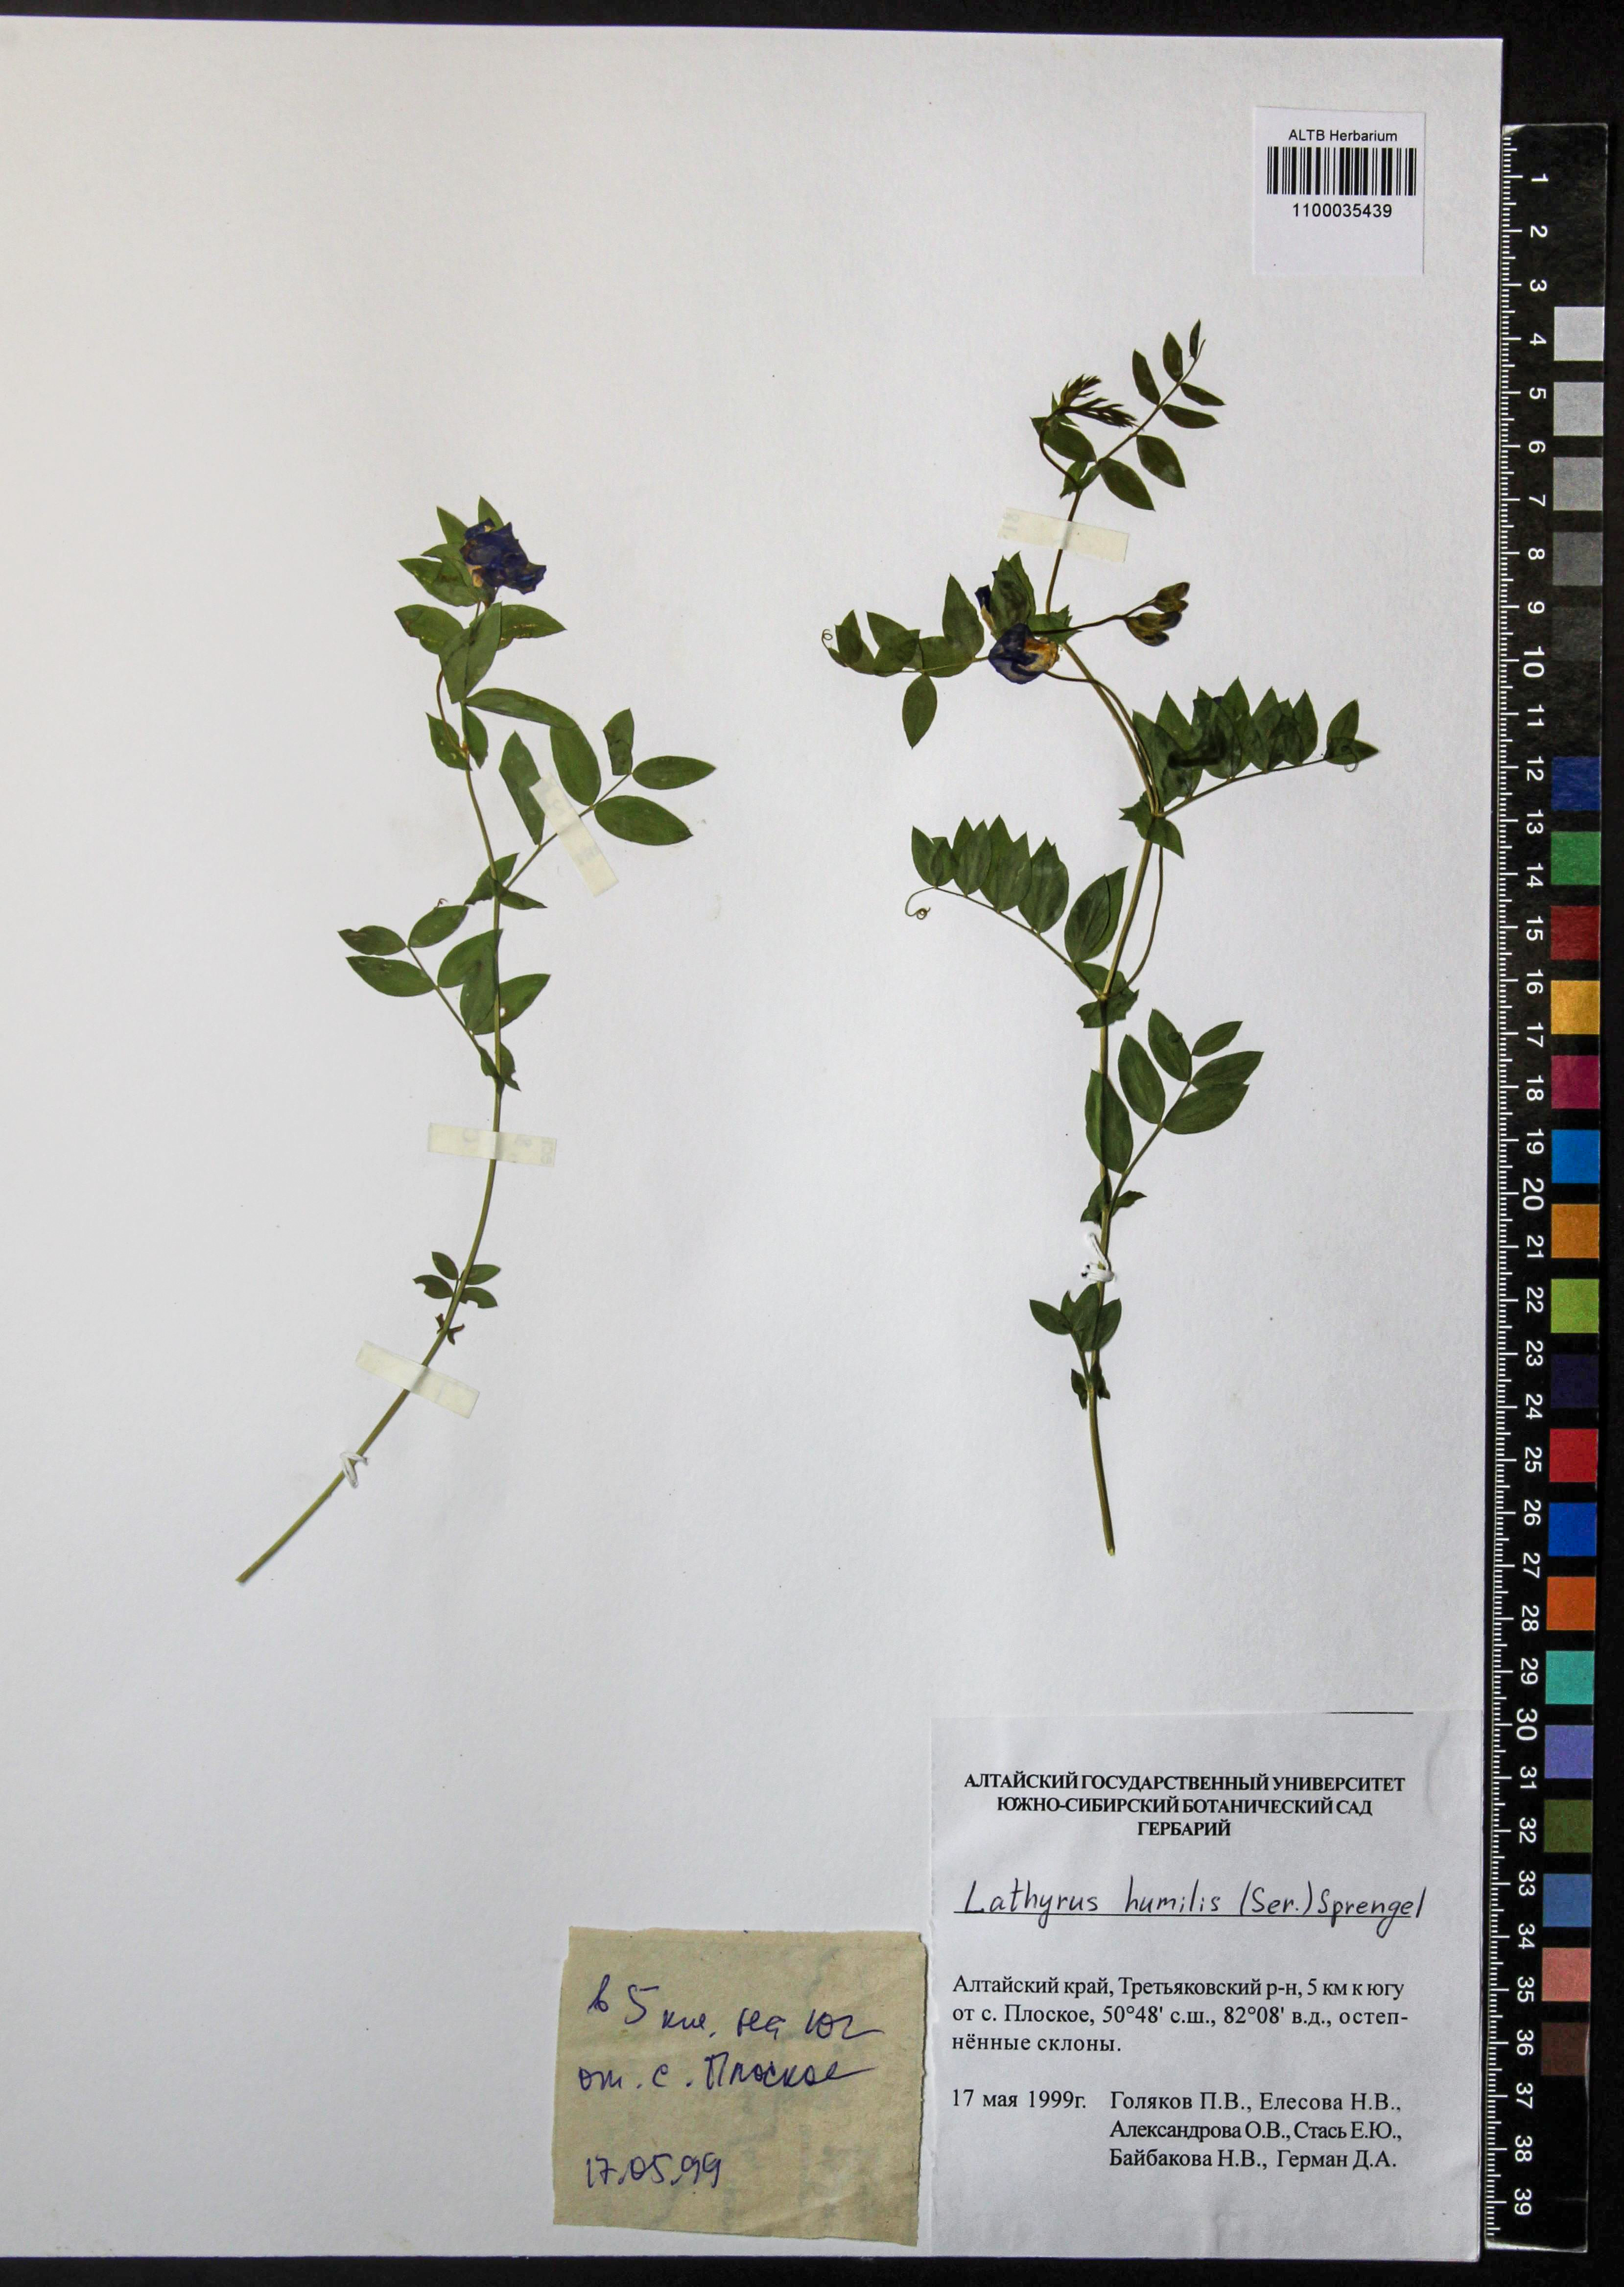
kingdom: Plantae
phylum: Tracheophyta
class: Magnoliopsida
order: Fabales
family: Fabaceae
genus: Lathyrus
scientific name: Lathyrus humilis
